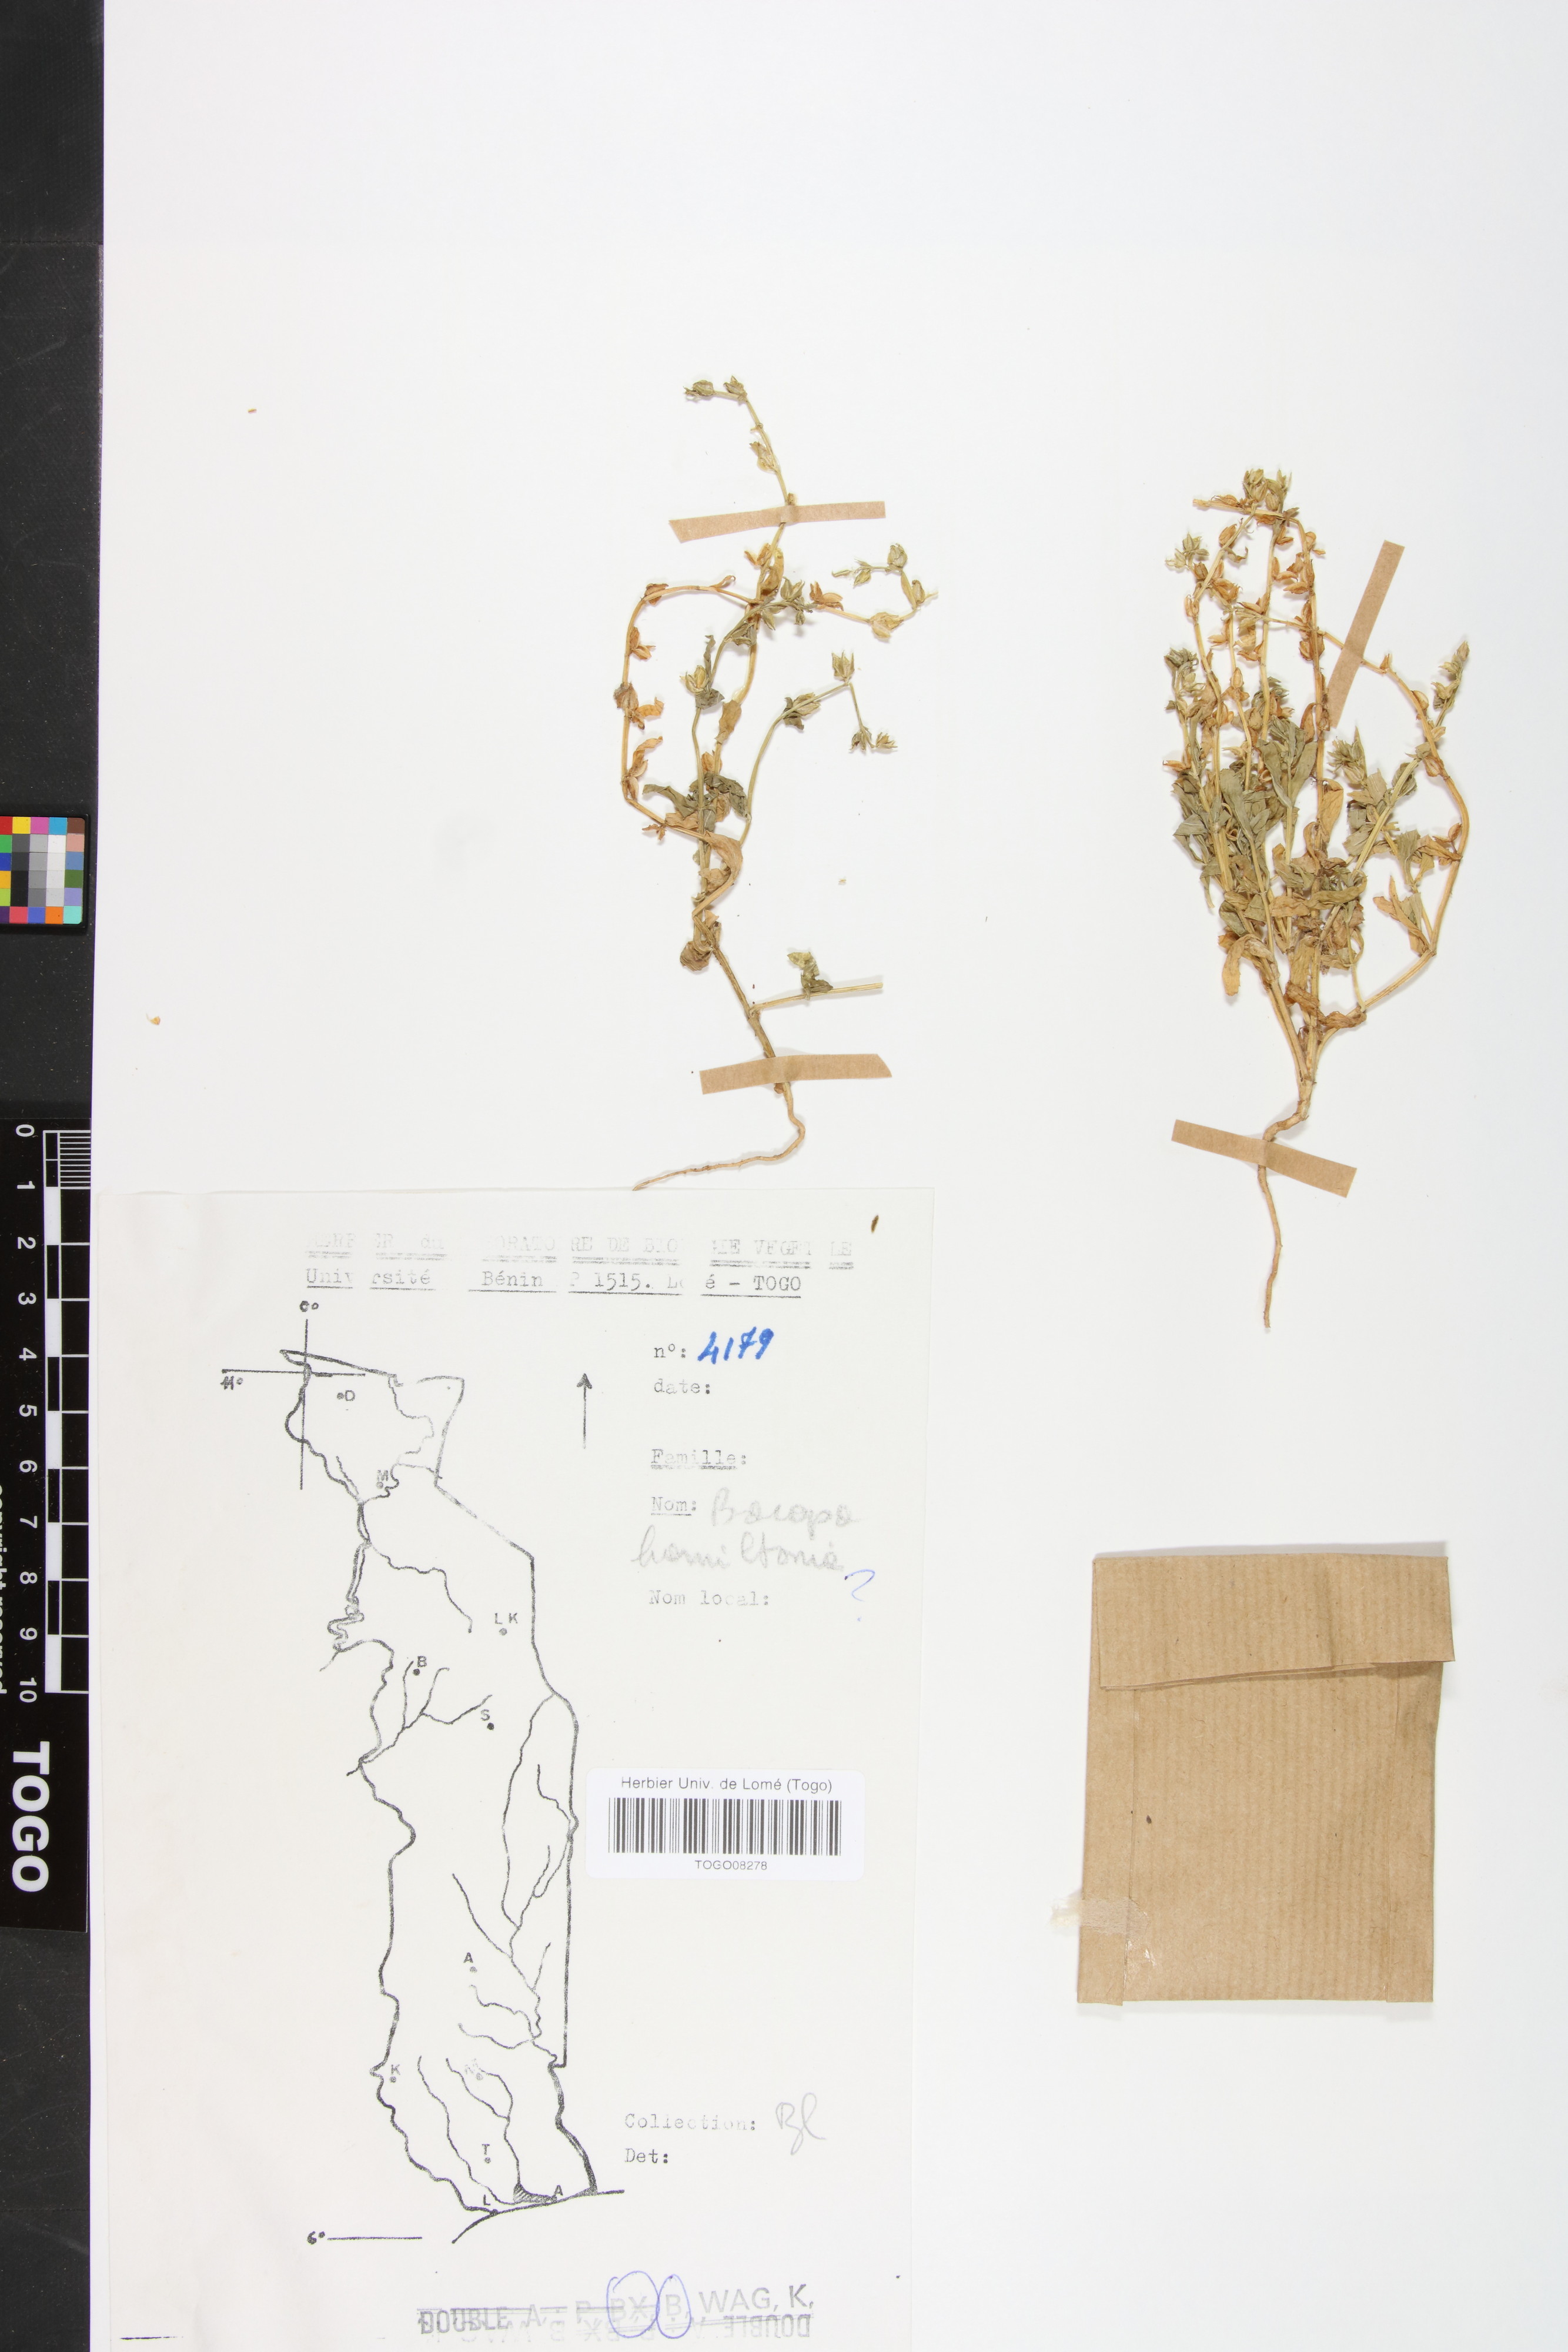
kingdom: Plantae
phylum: Tracheophyta
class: Magnoliopsida
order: Lamiales
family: Plantaginaceae
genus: Bacopa
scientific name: Bacopa hamiltoniana
